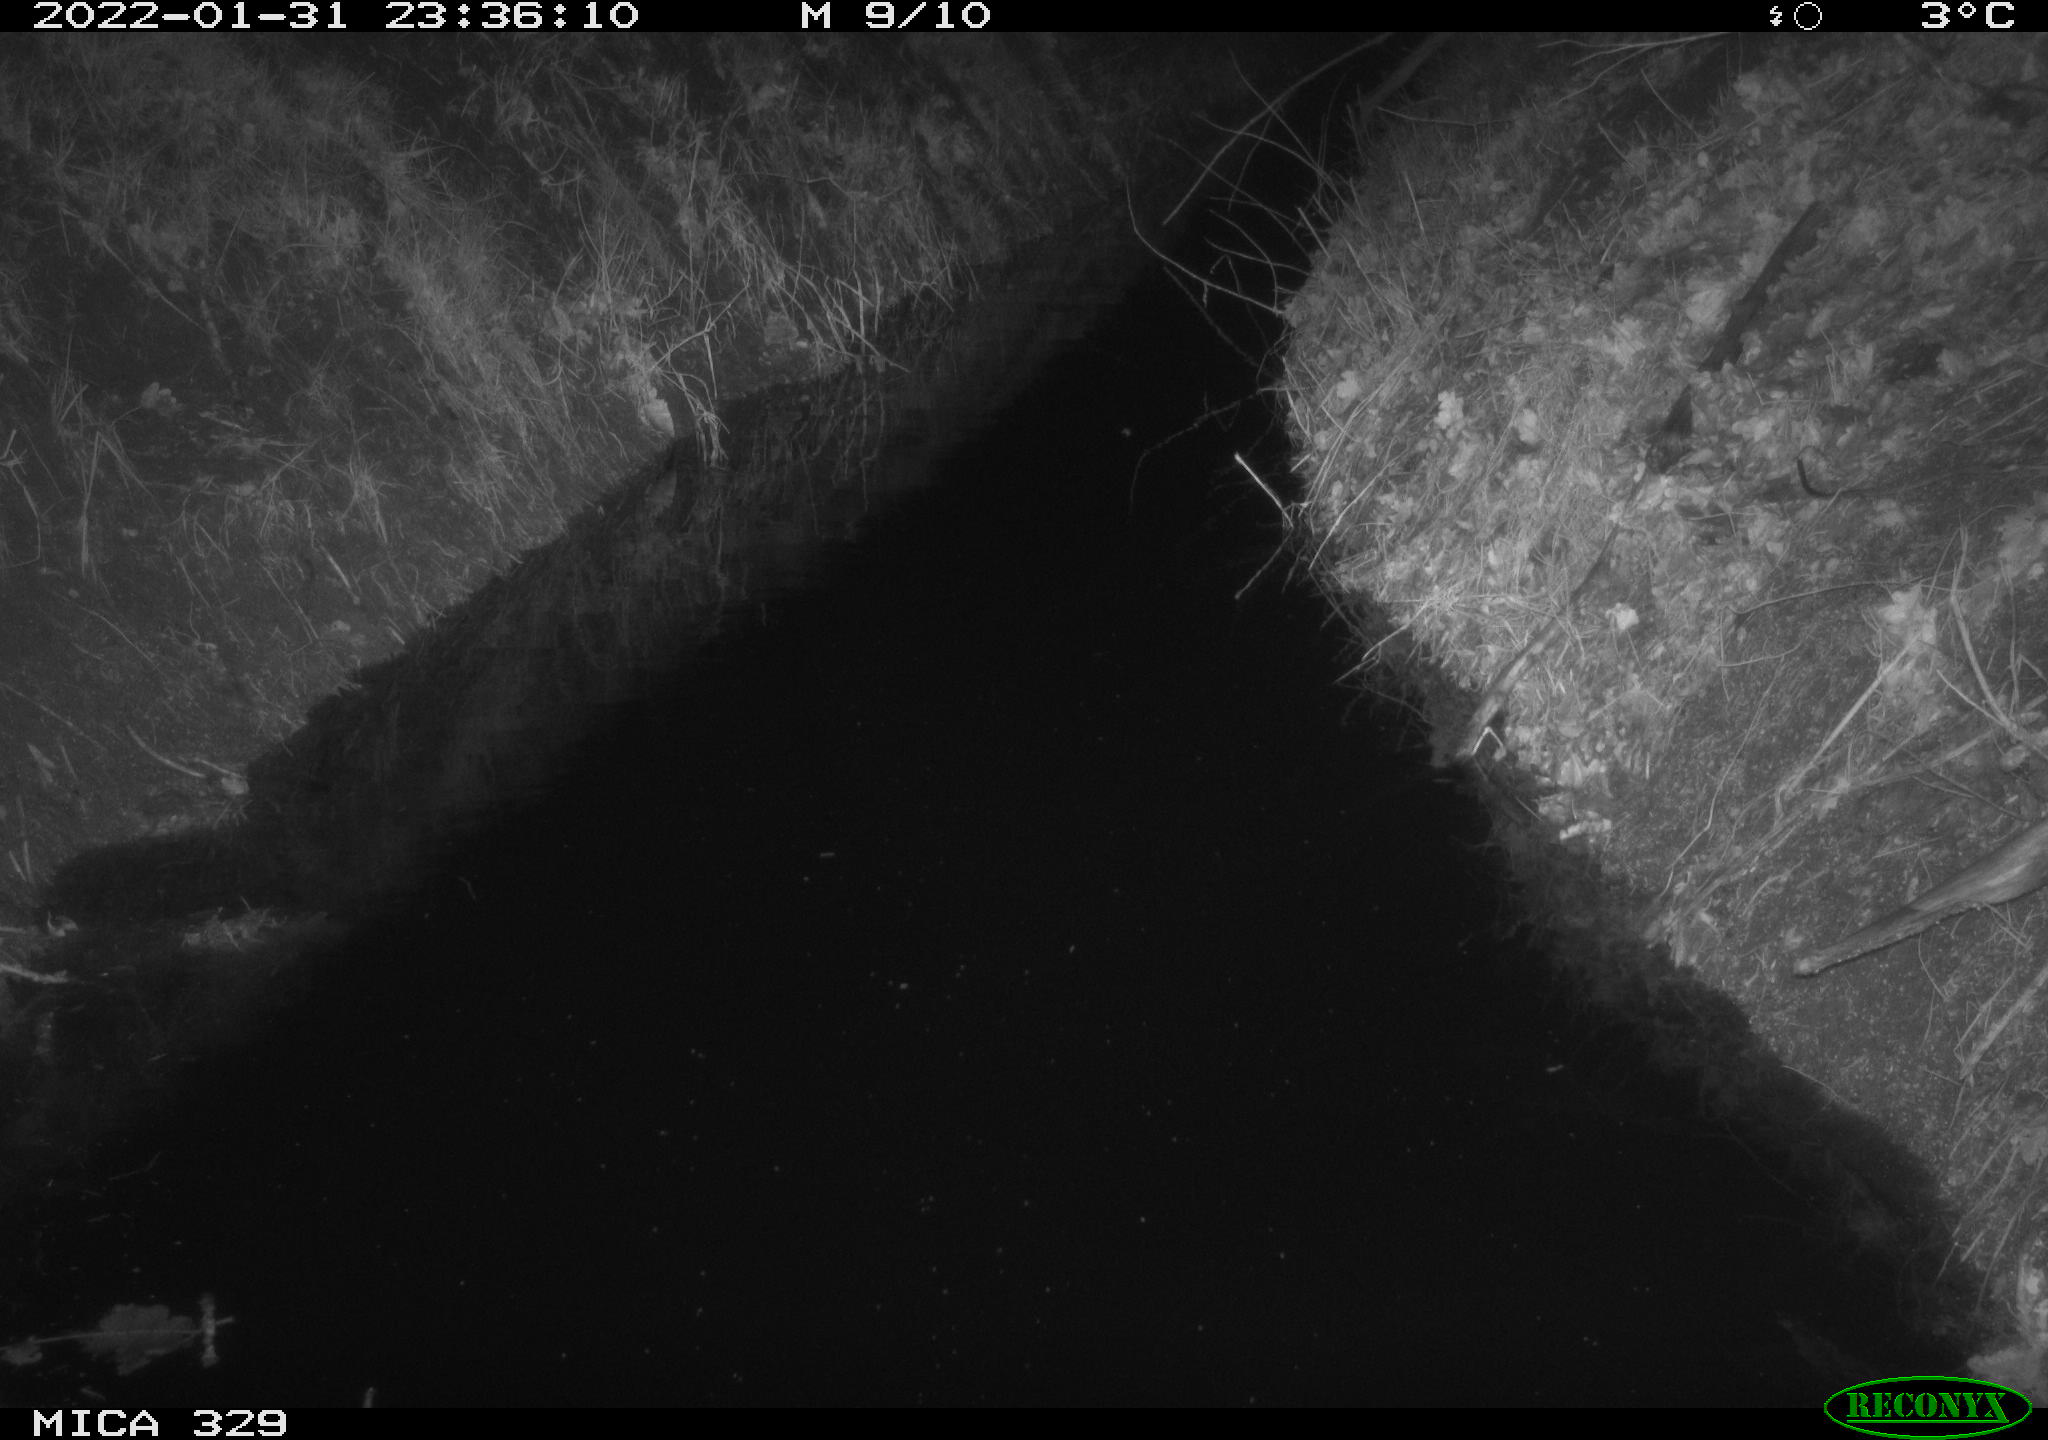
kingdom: Animalia
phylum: Chordata
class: Mammalia
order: Rodentia
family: Muridae
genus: Rattus
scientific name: Rattus norvegicus
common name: Brown rat
